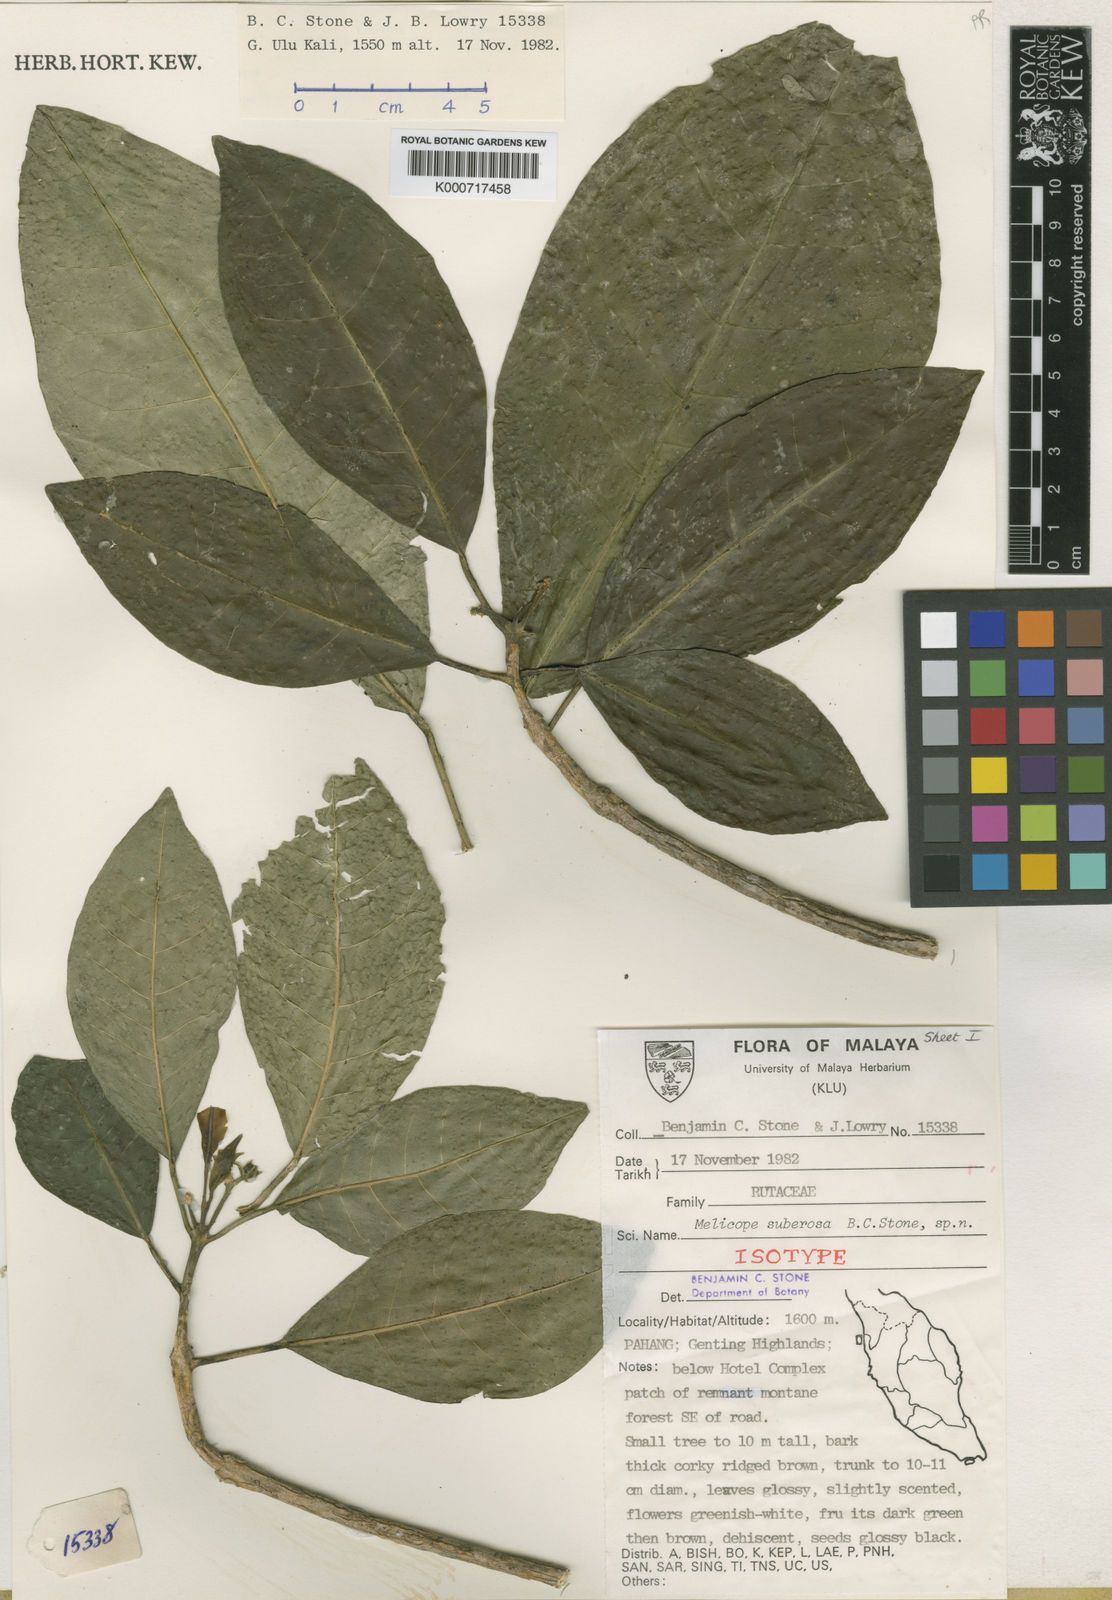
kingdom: Plantae
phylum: Tracheophyta
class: Magnoliopsida
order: Sapindales
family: Rutaceae
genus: Melicope
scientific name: Melicope suberosa
